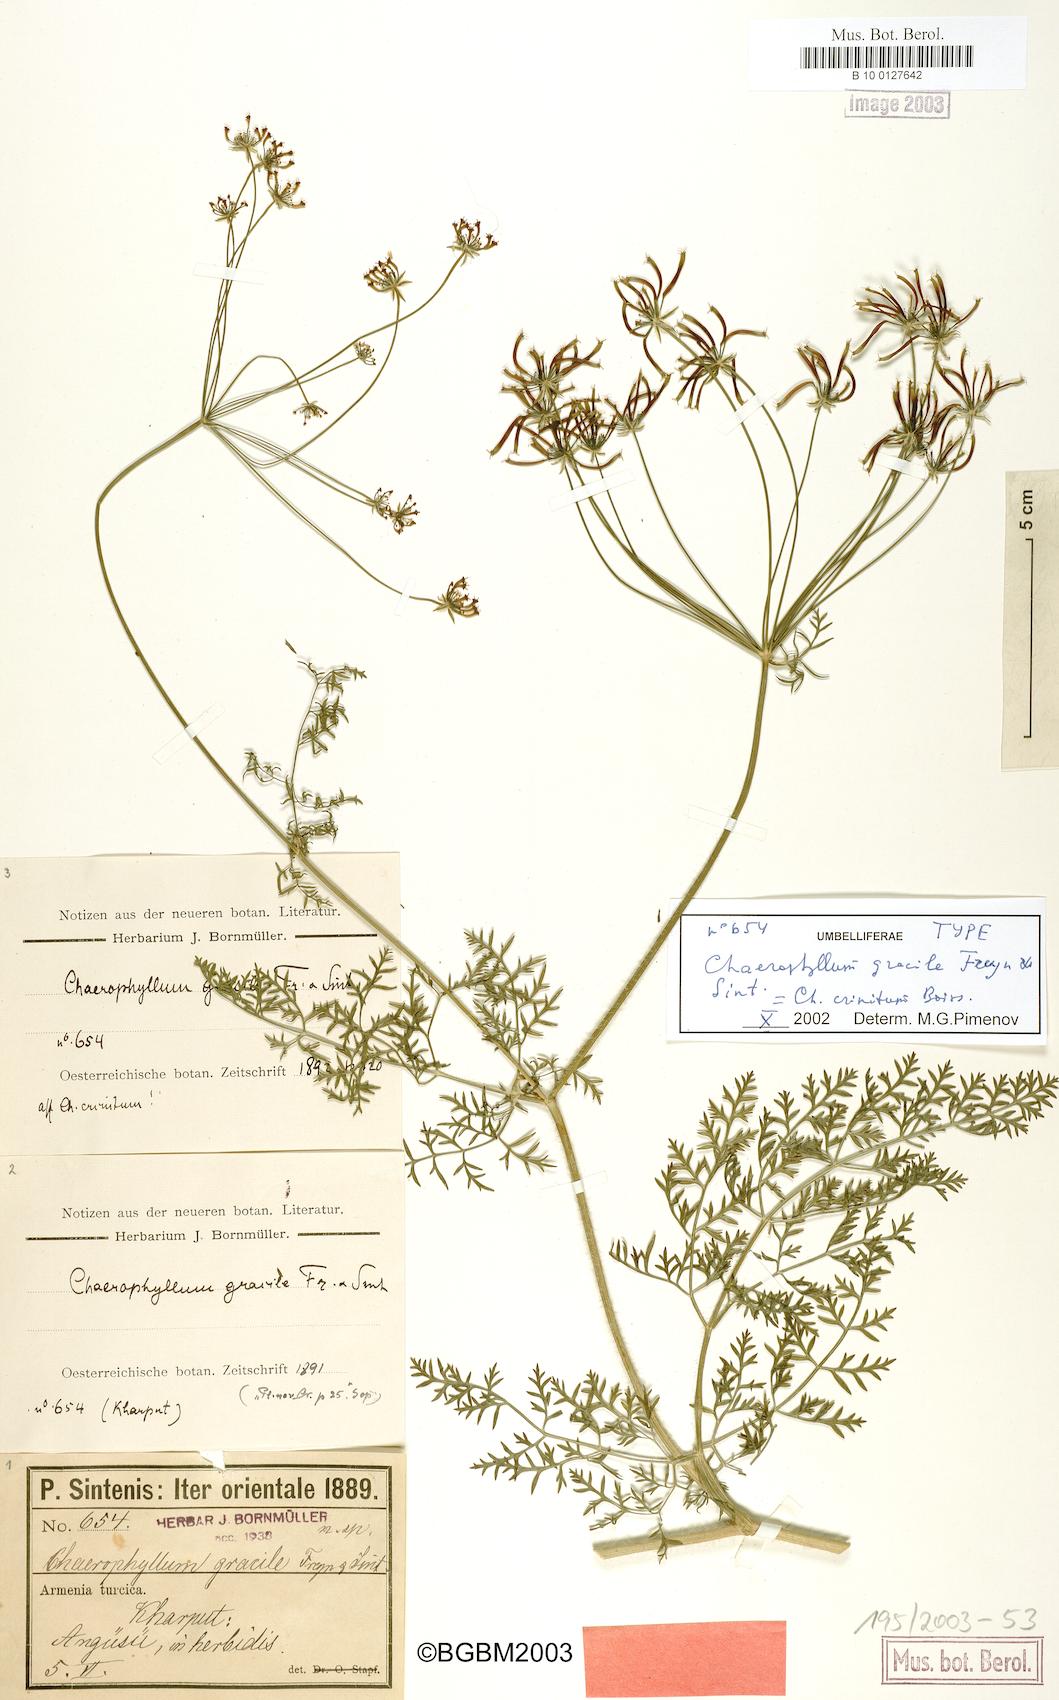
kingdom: Plantae
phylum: Tracheophyta
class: Magnoliopsida
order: Apiales
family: Apiaceae
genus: Chaerophyllum
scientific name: Chaerophyllum crinitum
